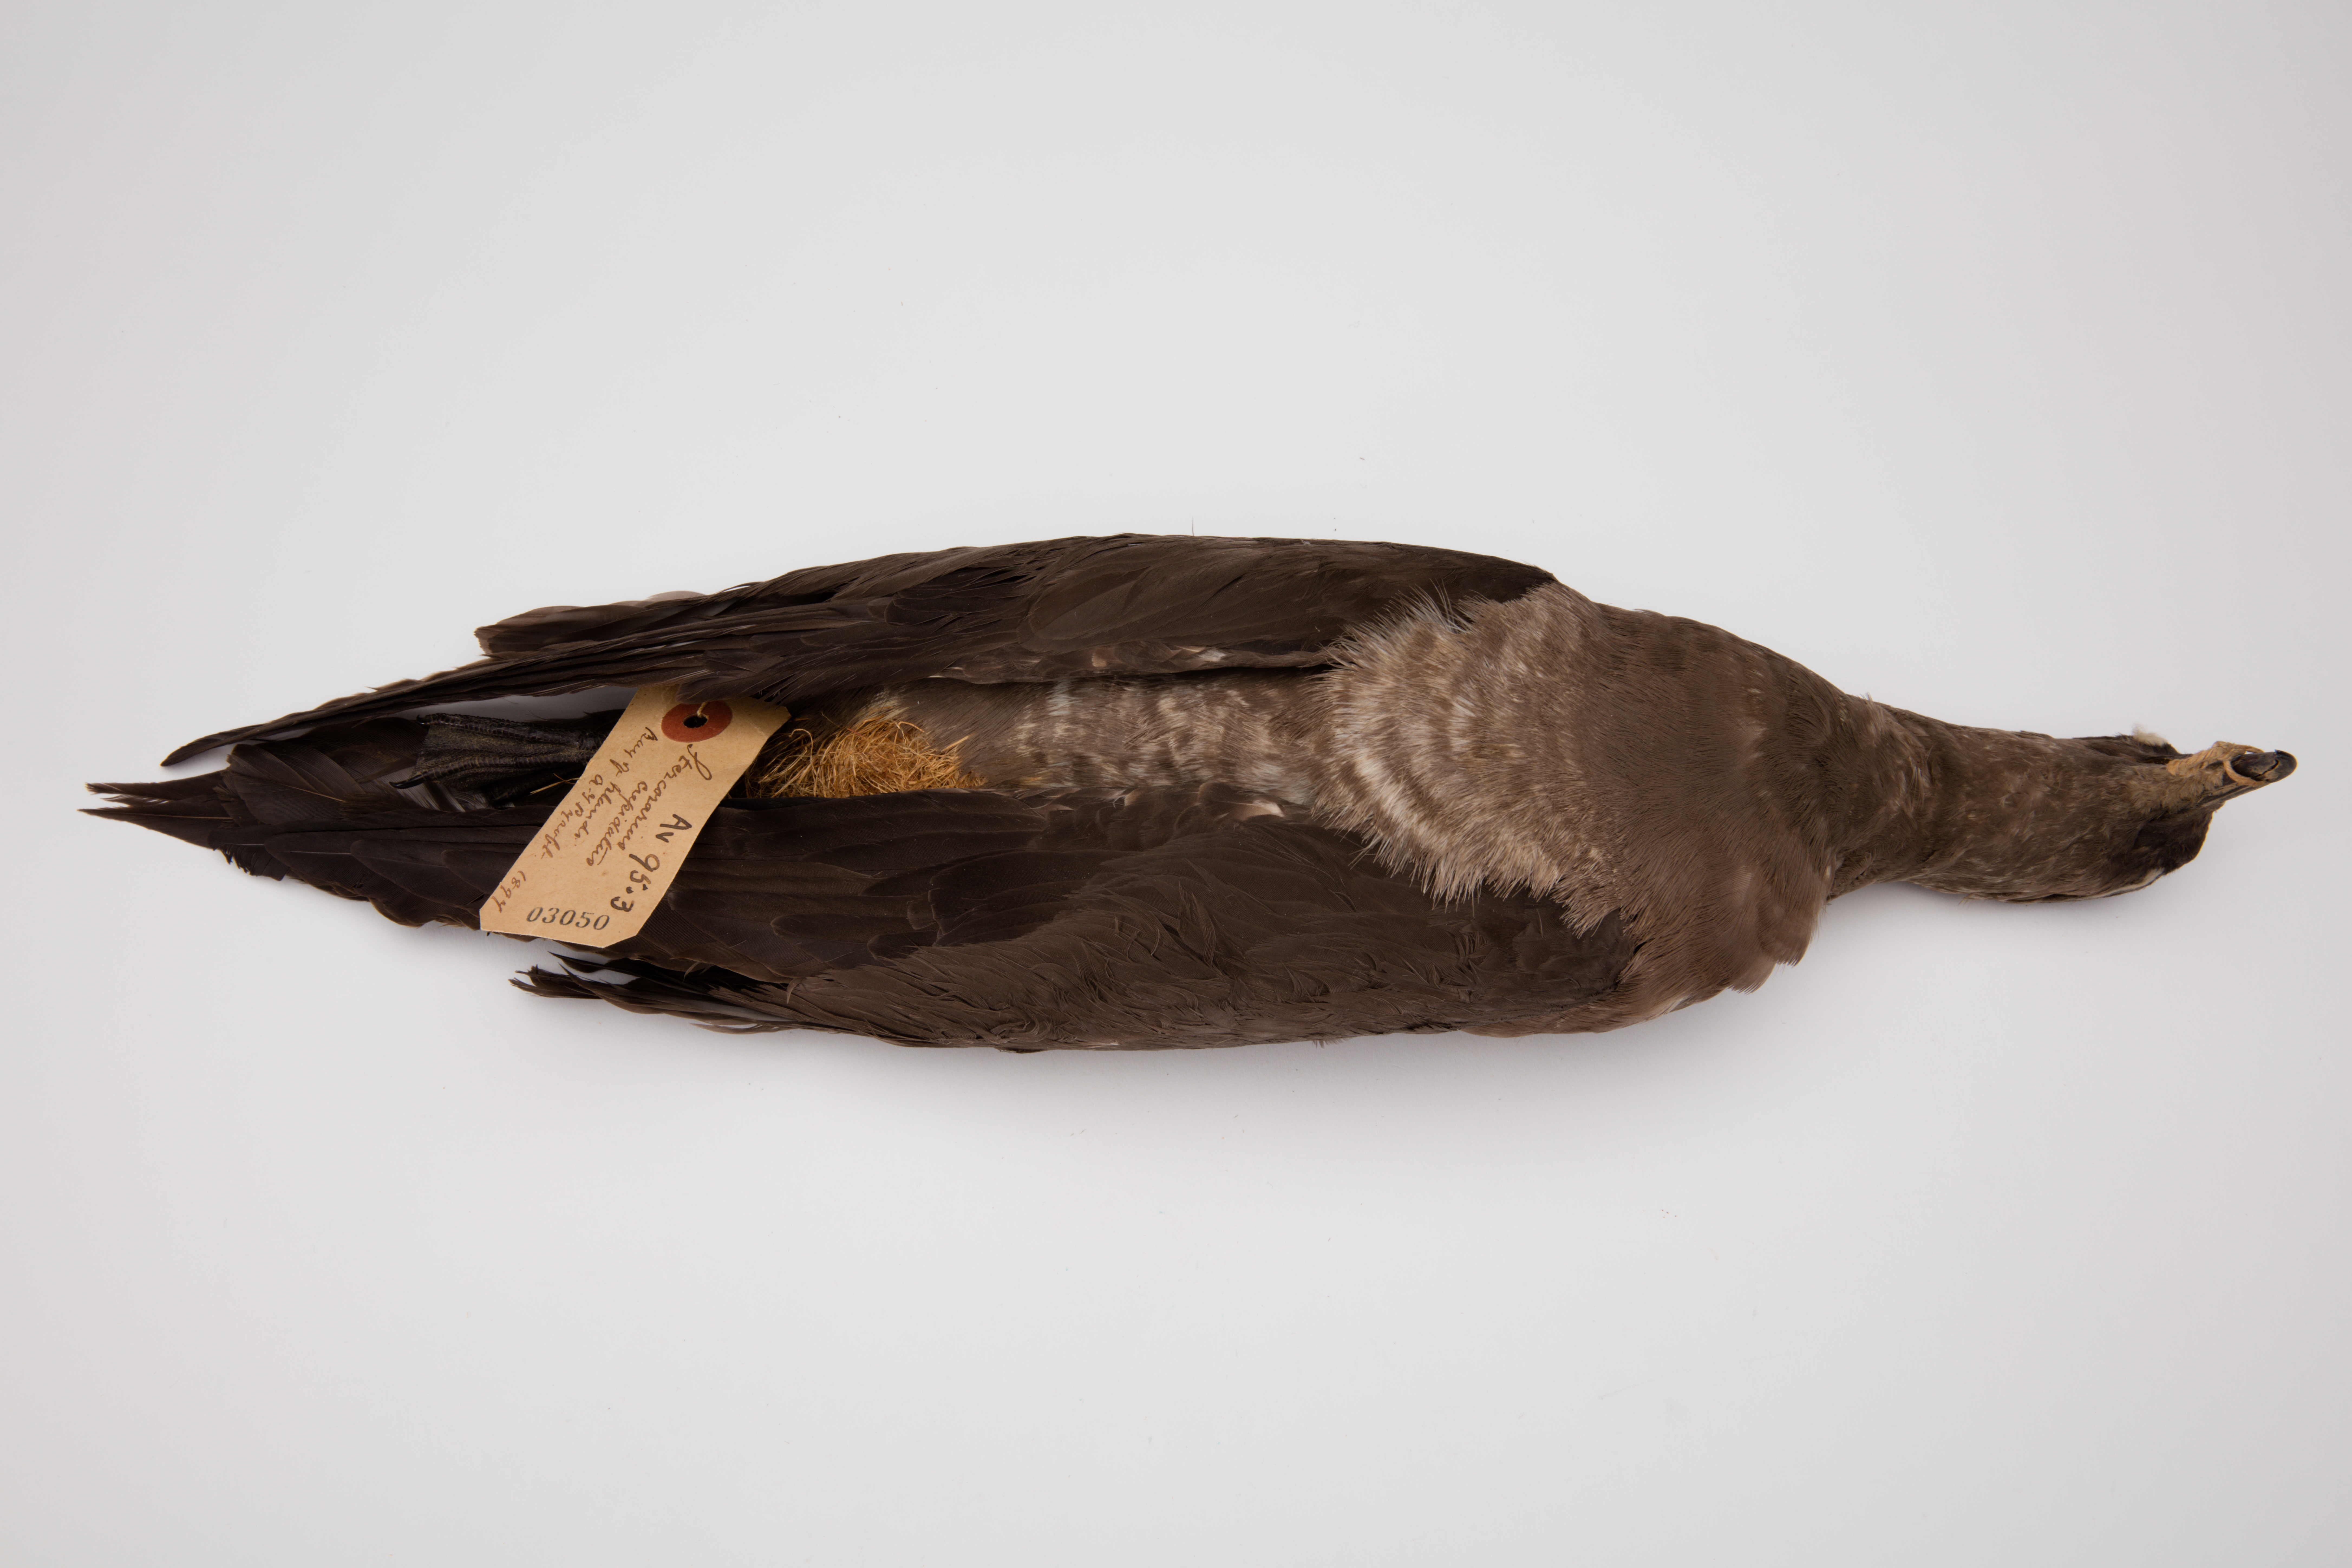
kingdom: Animalia
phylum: Chordata
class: Aves
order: Charadriiformes
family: Stercorariidae
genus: Stercorarius
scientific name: Stercorarius parasiticus
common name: Parasitic jaeger
